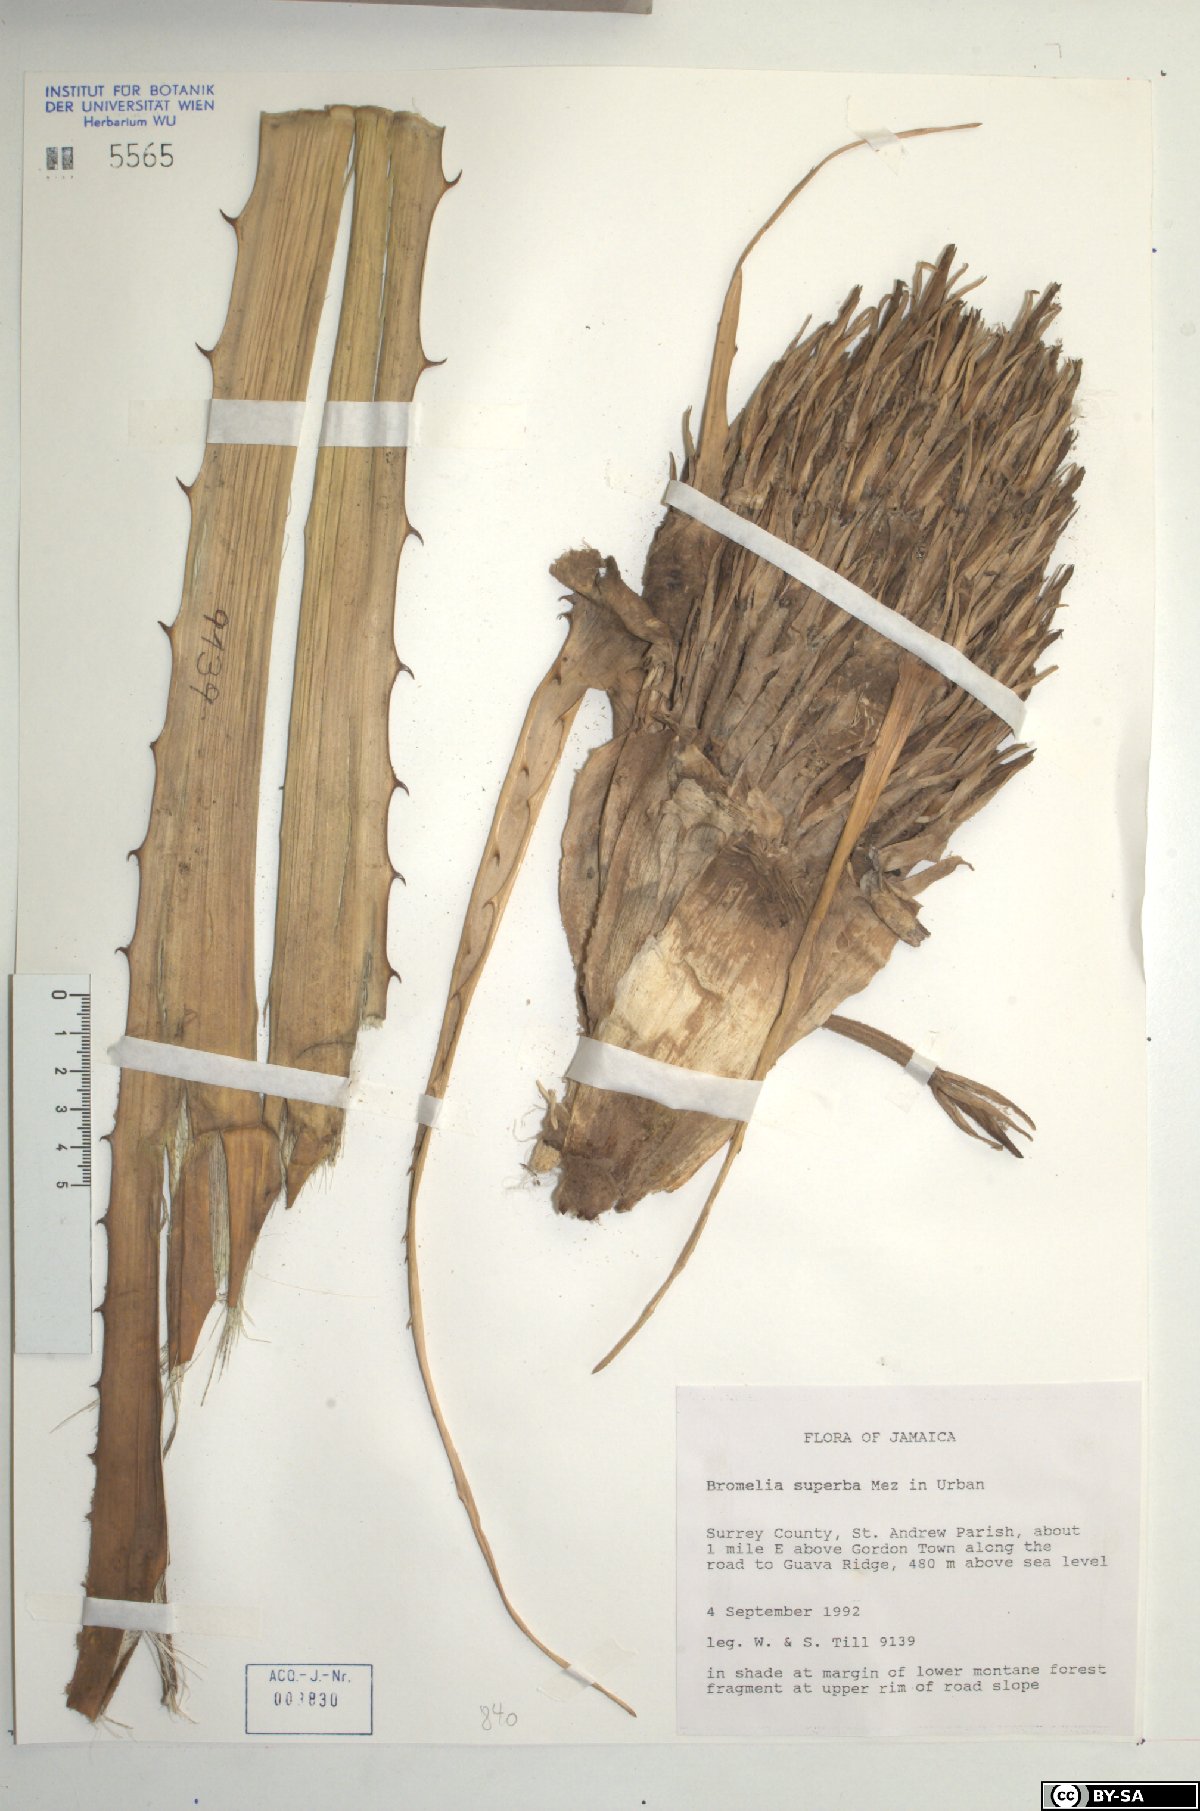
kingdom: Plantae
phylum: Tracheophyta
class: Liliopsida
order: Poales
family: Bromeliaceae
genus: Bromelia
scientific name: Bromelia superba
